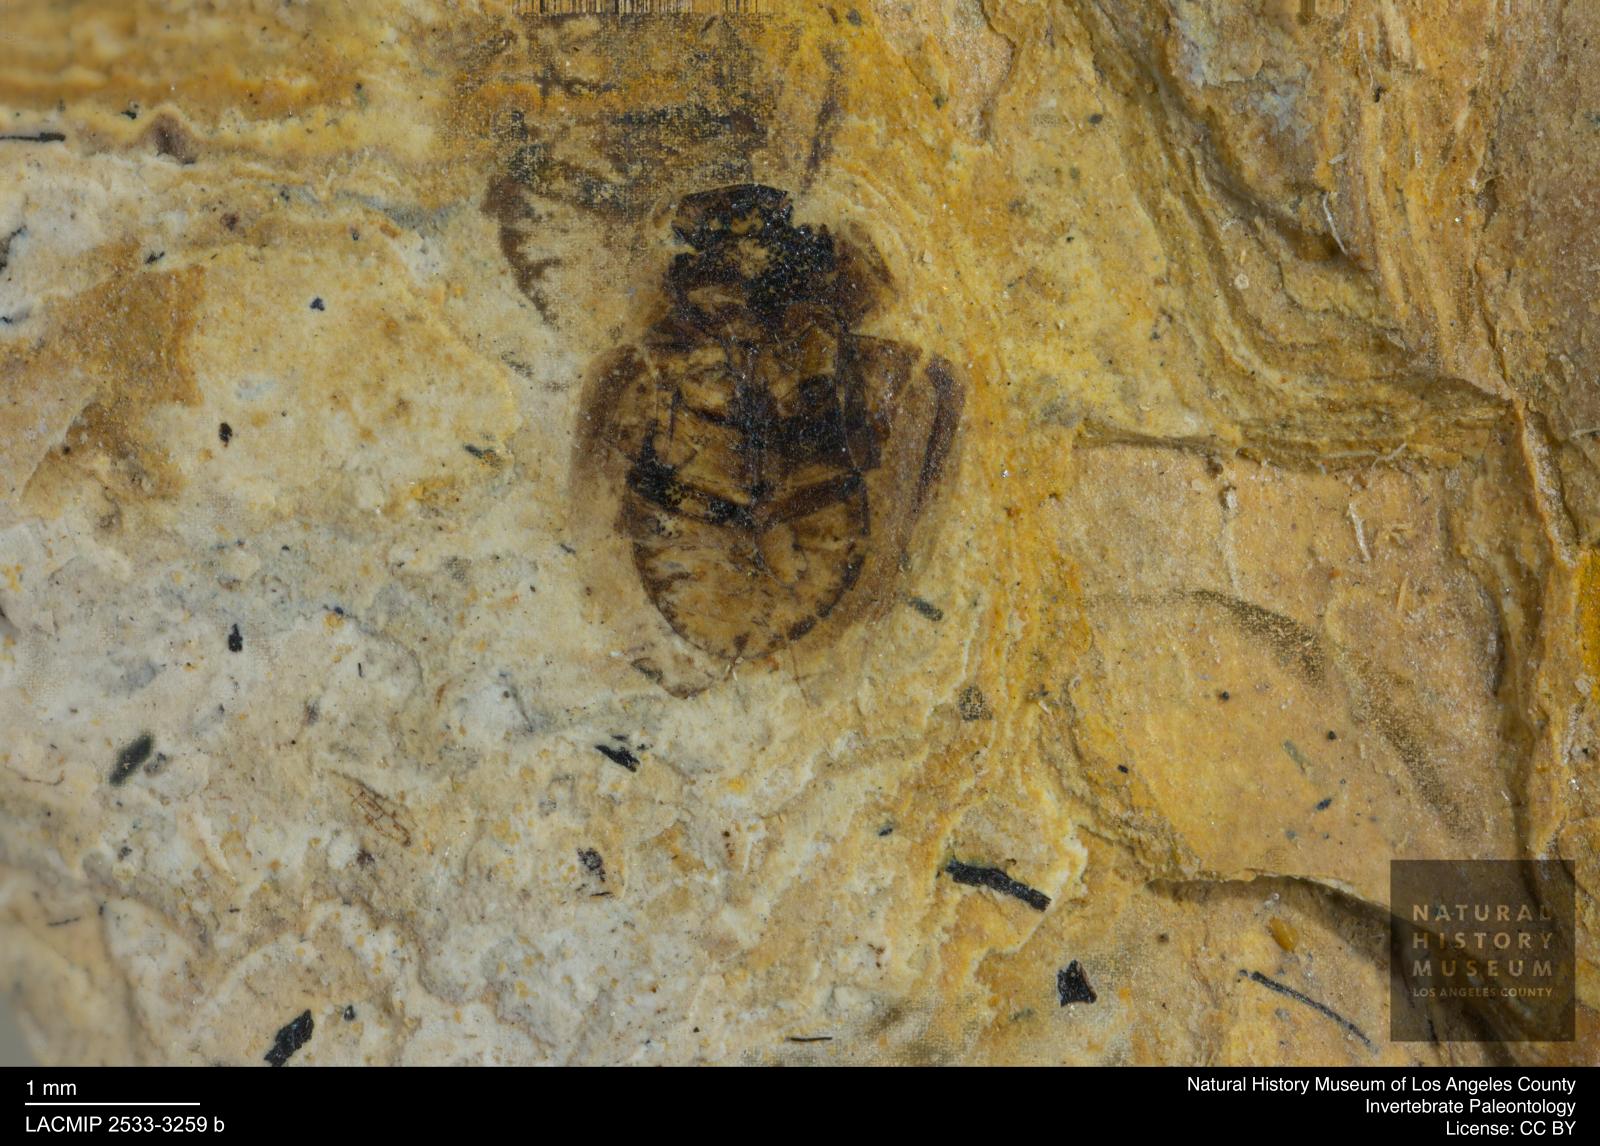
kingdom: Animalia
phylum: Arthropoda
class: Insecta
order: Coleoptera
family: Hydrophilidae
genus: Paracymus
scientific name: Paracymus excitatus
